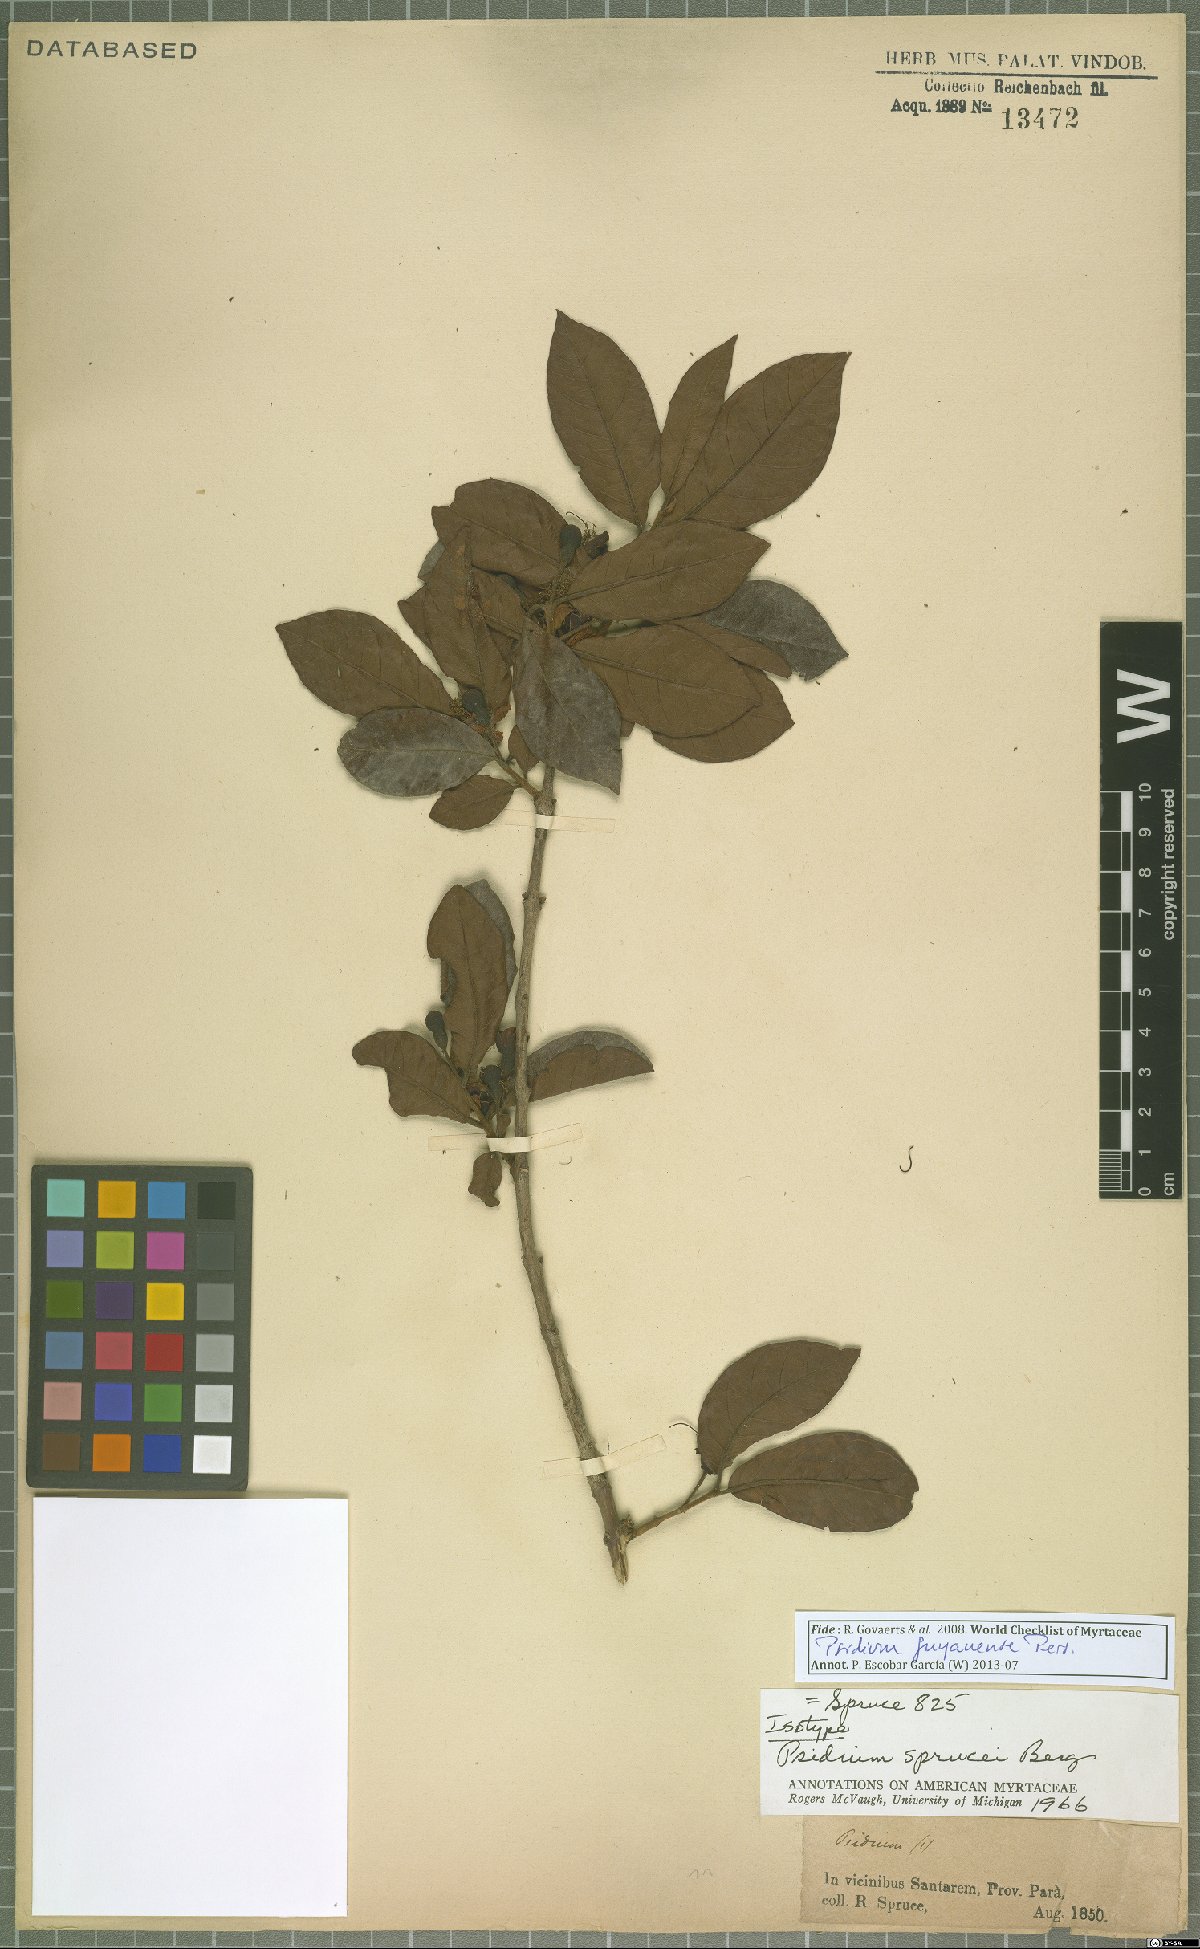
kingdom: Plantae
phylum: Tracheophyta
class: Magnoliopsida
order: Myrtales
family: Myrtaceae
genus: Psidium
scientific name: Psidium guyanense
